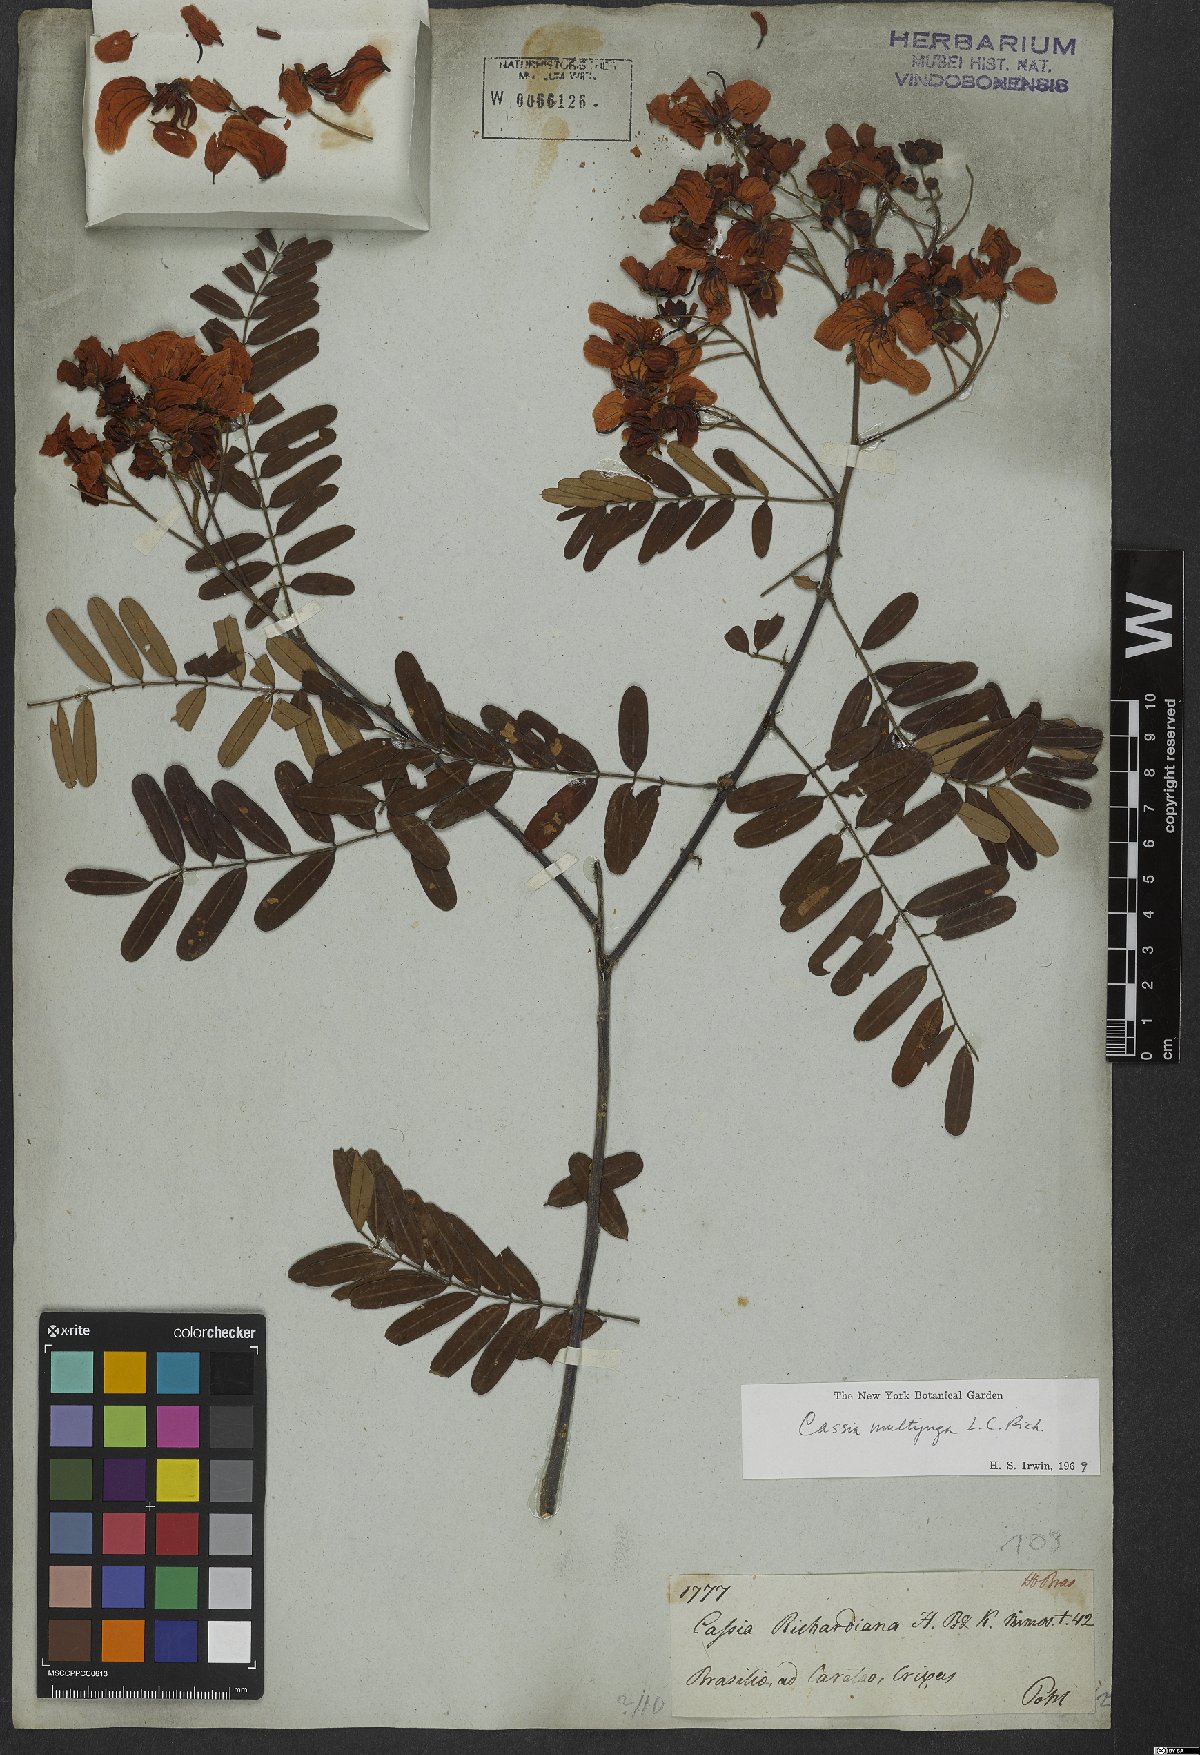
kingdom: Plantae
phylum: Tracheophyta
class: Magnoliopsida
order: Fabales
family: Fabaceae
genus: Senna
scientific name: Senna multijuga
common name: False sicklepod
